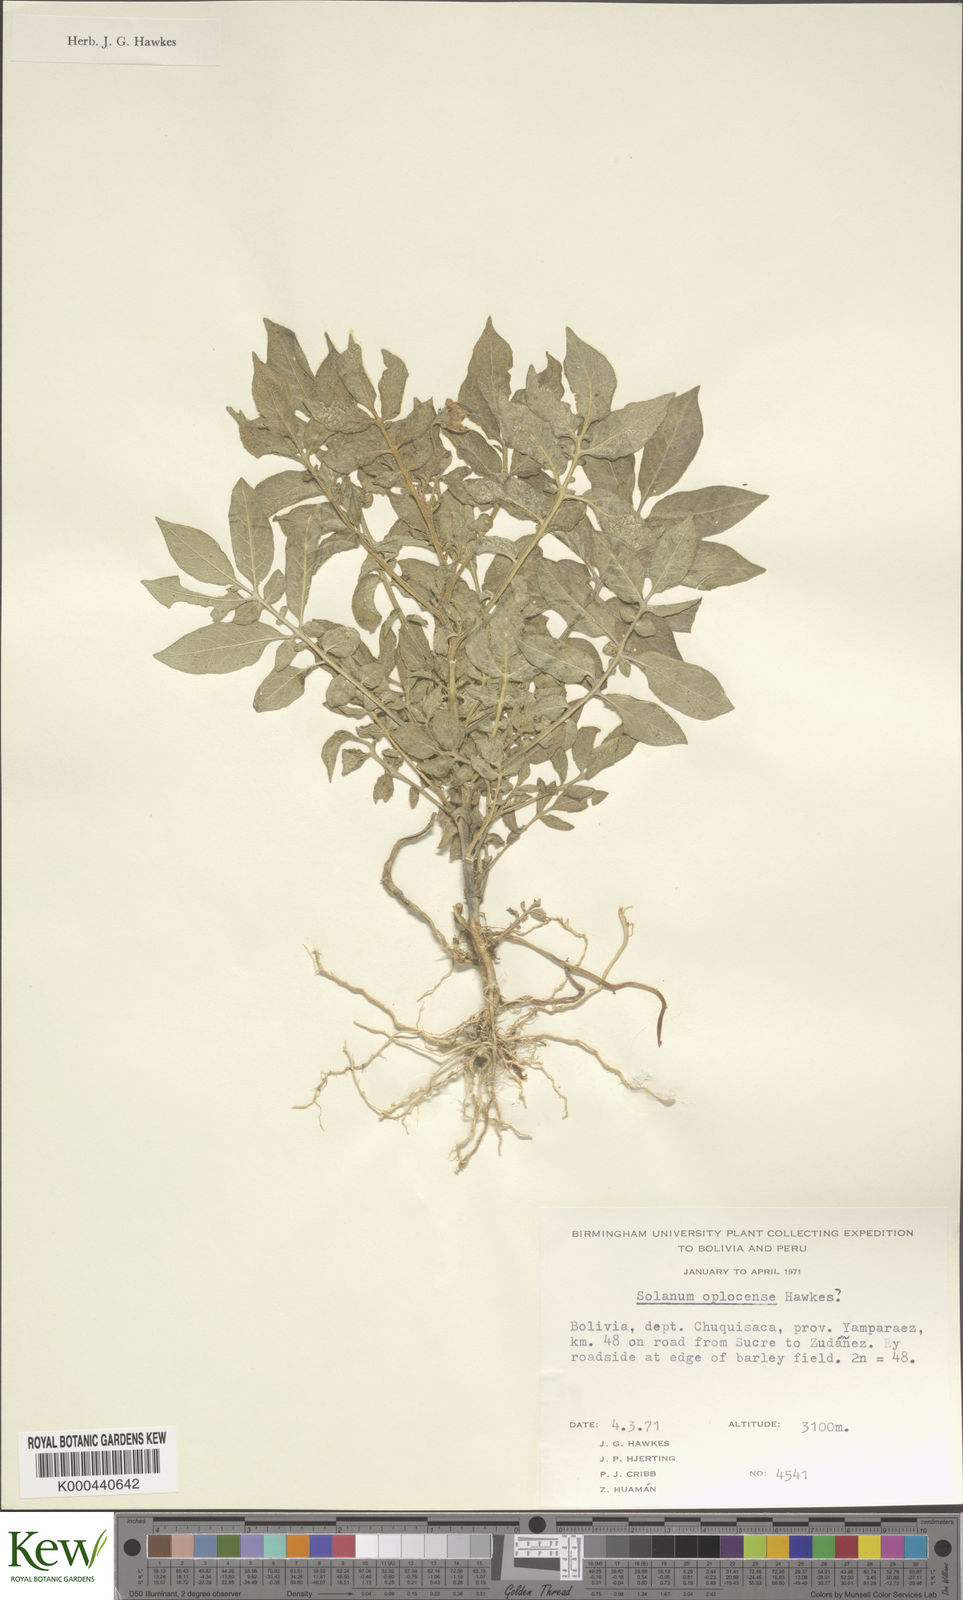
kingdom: Plantae
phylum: Tracheophyta
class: Magnoliopsida
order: Solanales
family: Solanaceae
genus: Solanum
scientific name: Solanum brevicaule
